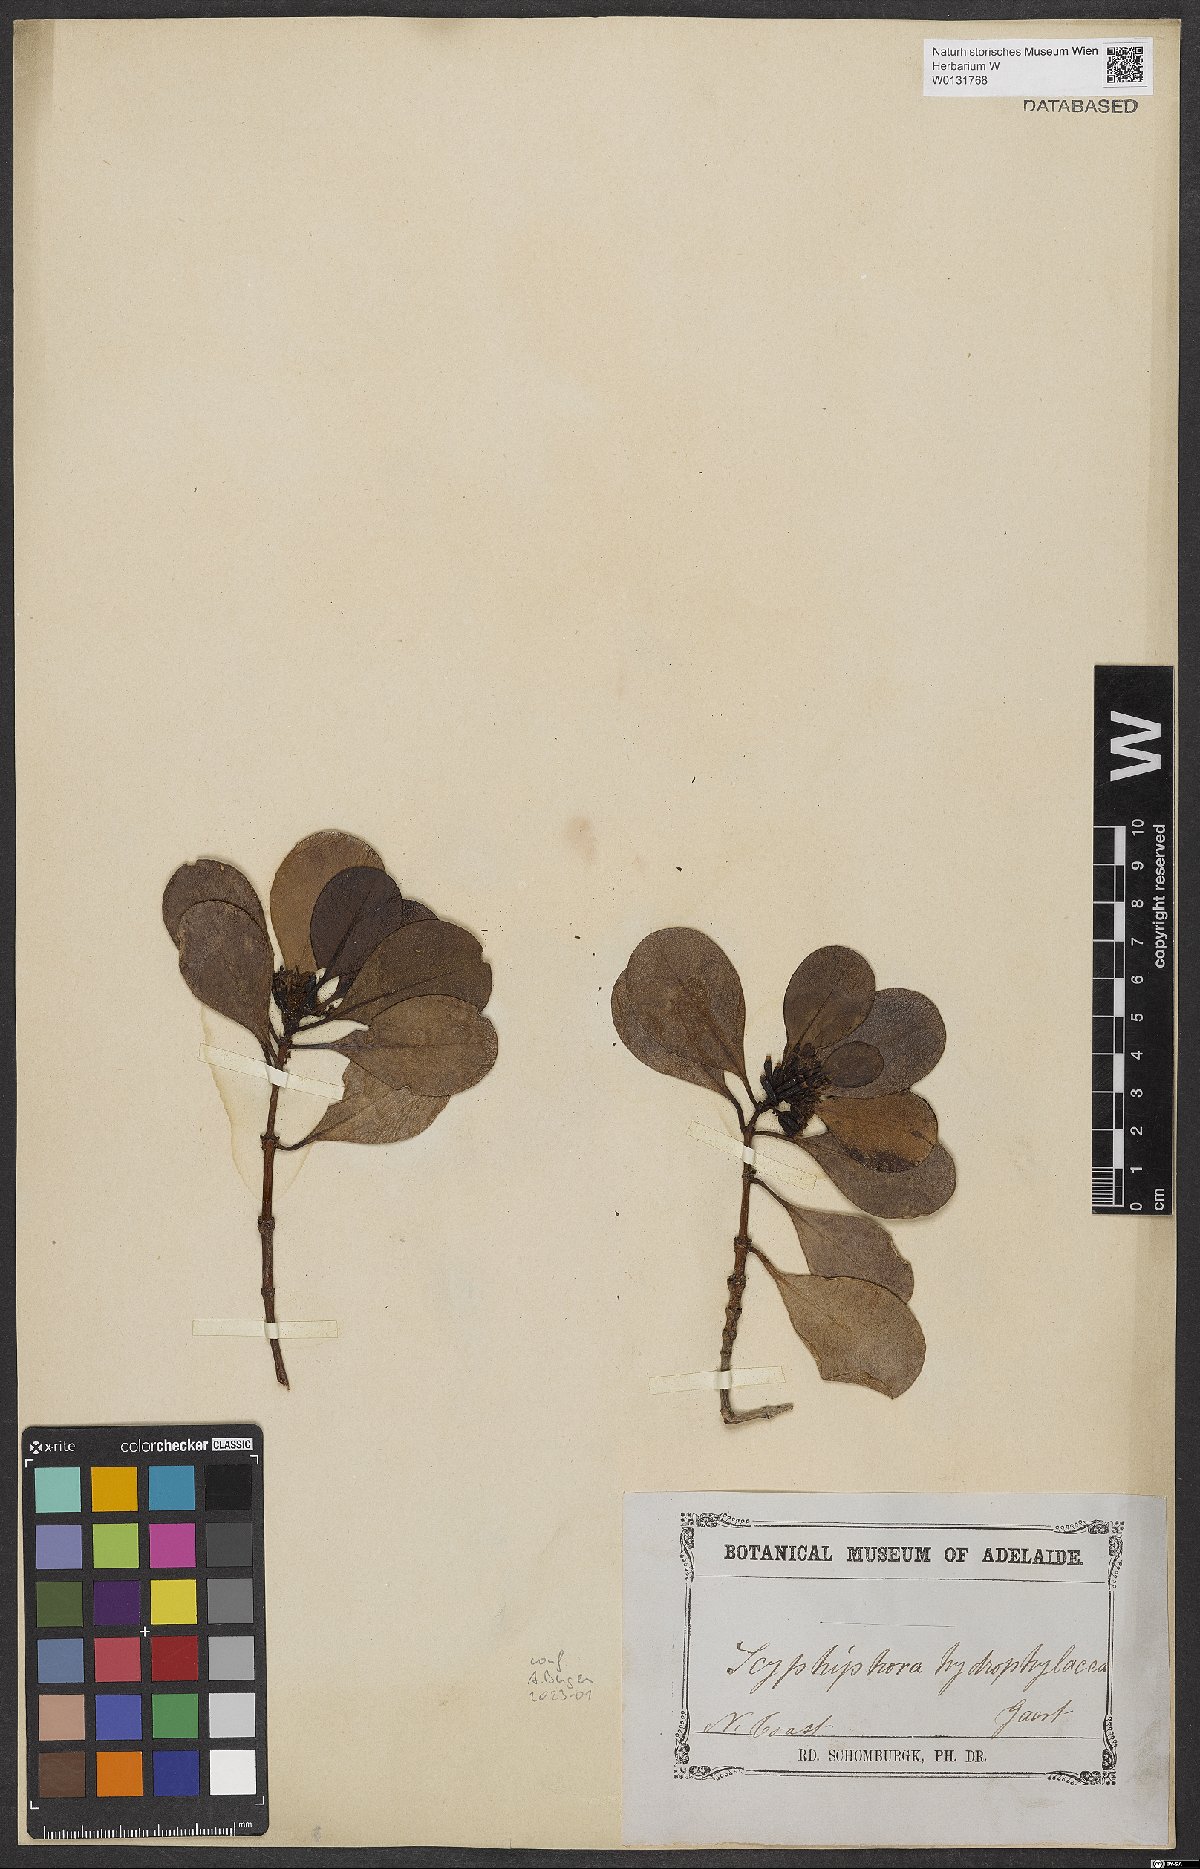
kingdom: Plantae
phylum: Tracheophyta
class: Magnoliopsida
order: Gentianales
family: Rubiaceae
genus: Scyphiphora
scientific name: Scyphiphora hydrophylacea
